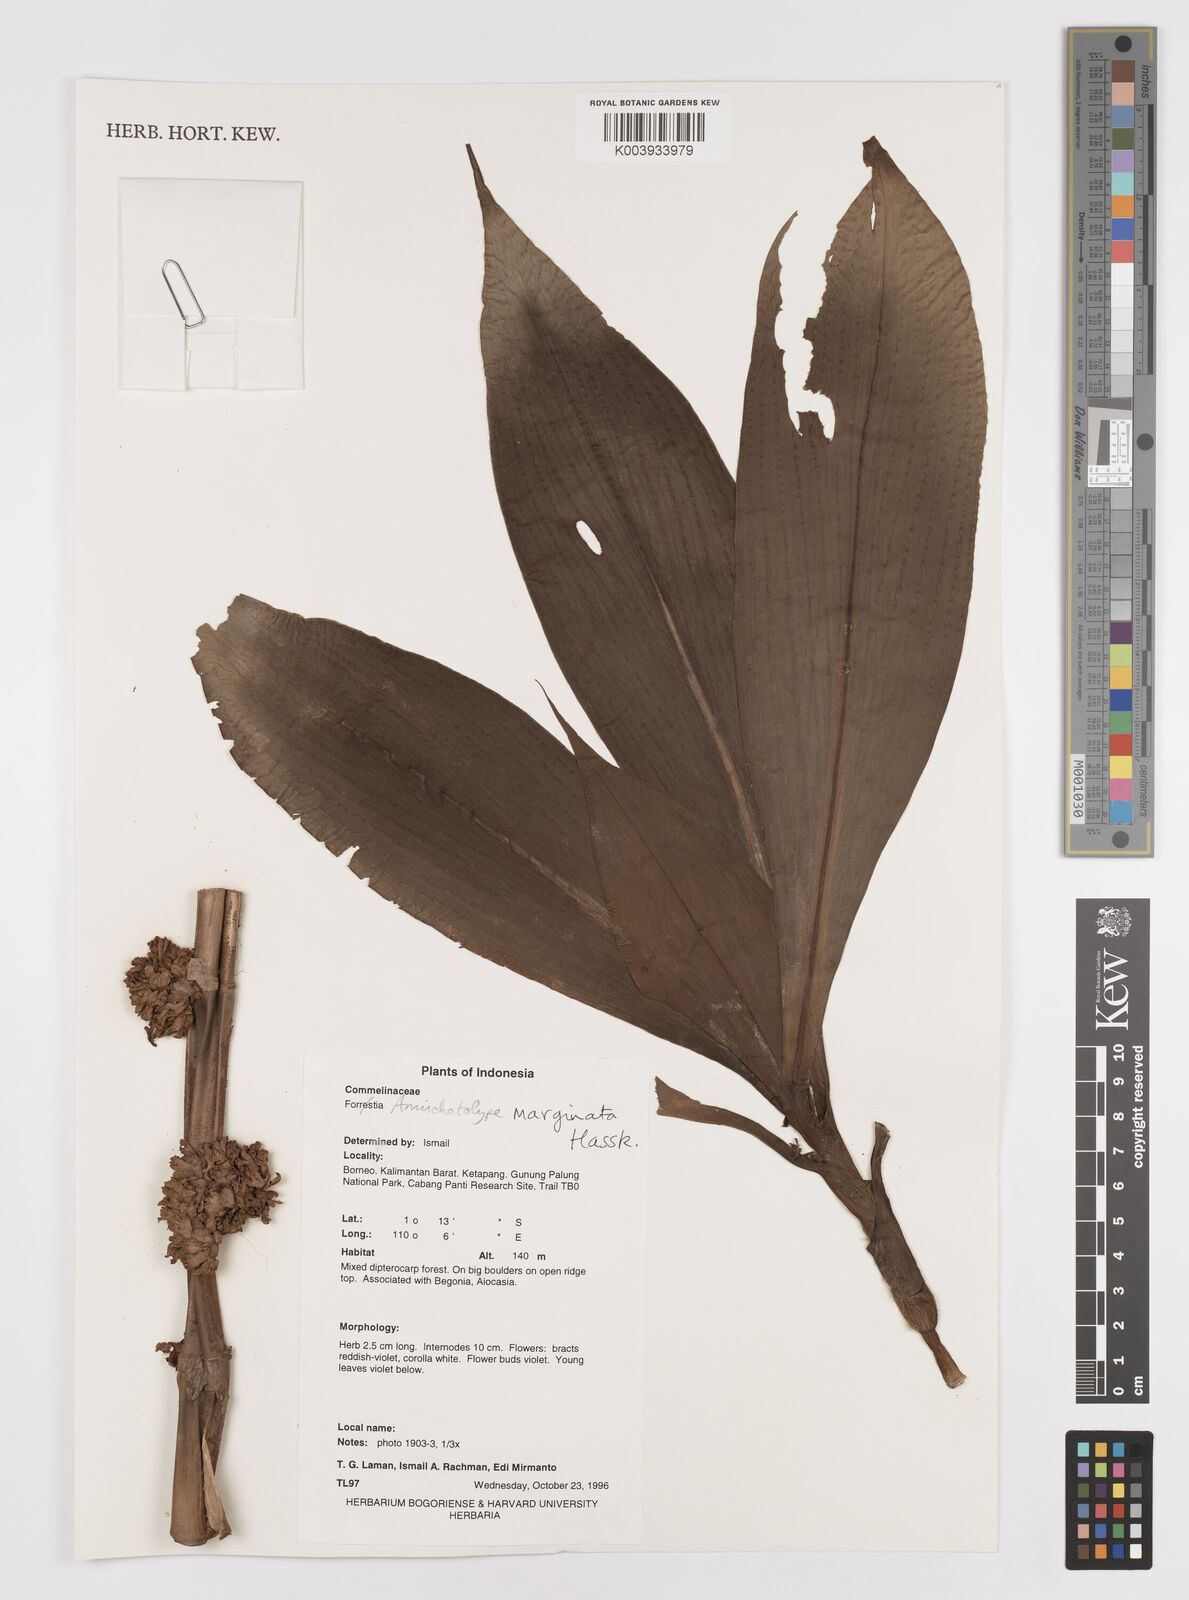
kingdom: Plantae
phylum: Tracheophyta
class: Liliopsida
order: Commelinales
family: Commelinaceae
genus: Amischotolype
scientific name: Amischotolype marginata
